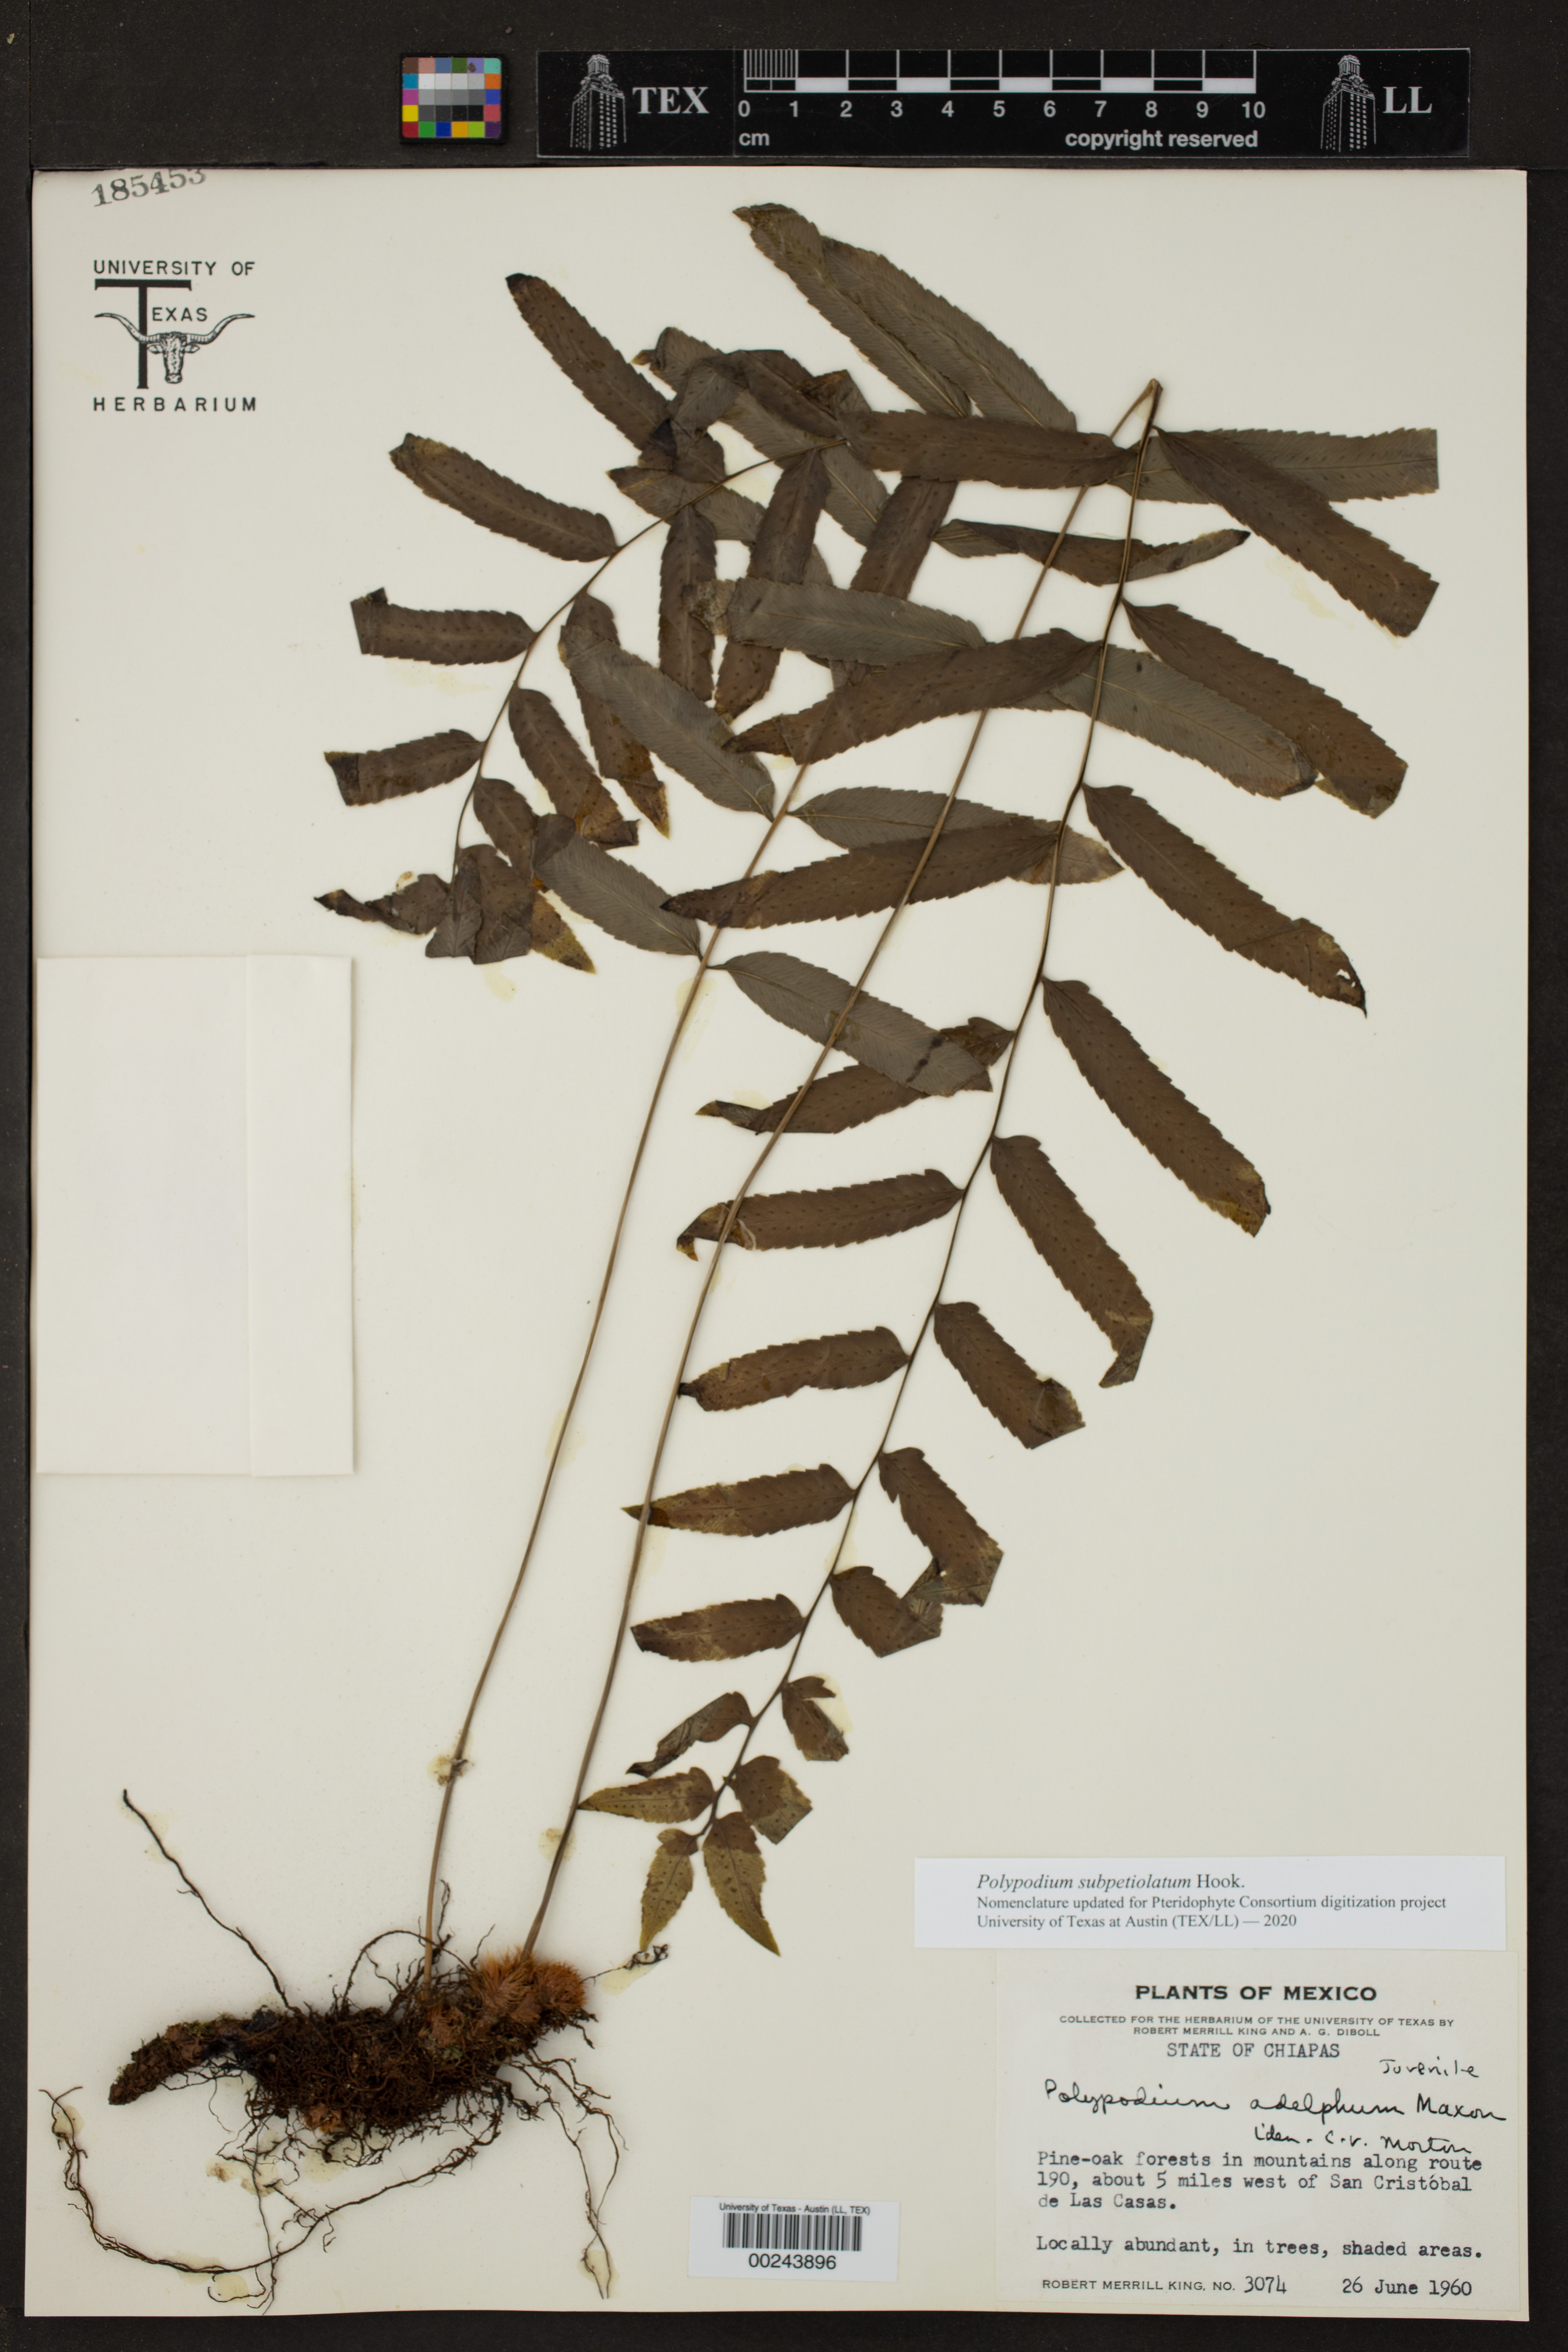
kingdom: Plantae
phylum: Tracheophyta
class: Polypodiopsida
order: Polypodiales
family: Polypodiaceae
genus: Polypodium
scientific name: Polypodium subpetiolatum
